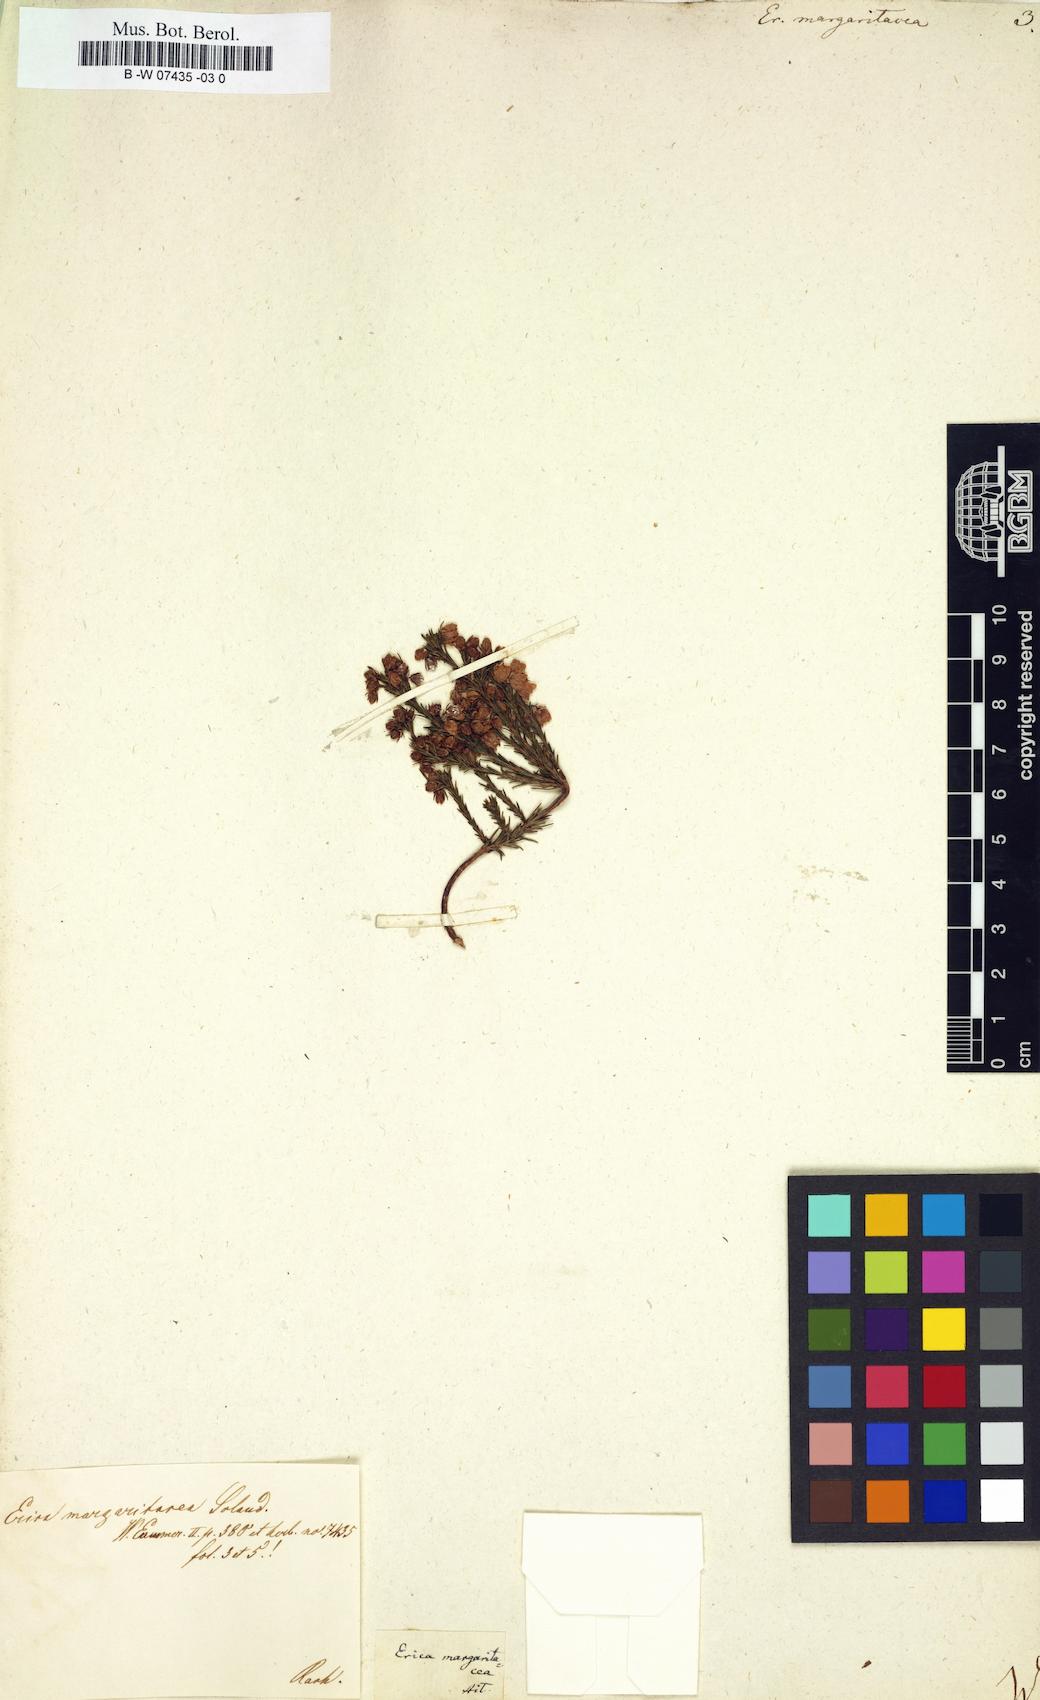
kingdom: Plantae
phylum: Tracheophyta
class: Magnoliopsida
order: Ericales
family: Ericaceae
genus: Erica
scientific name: Erica margaritacea
